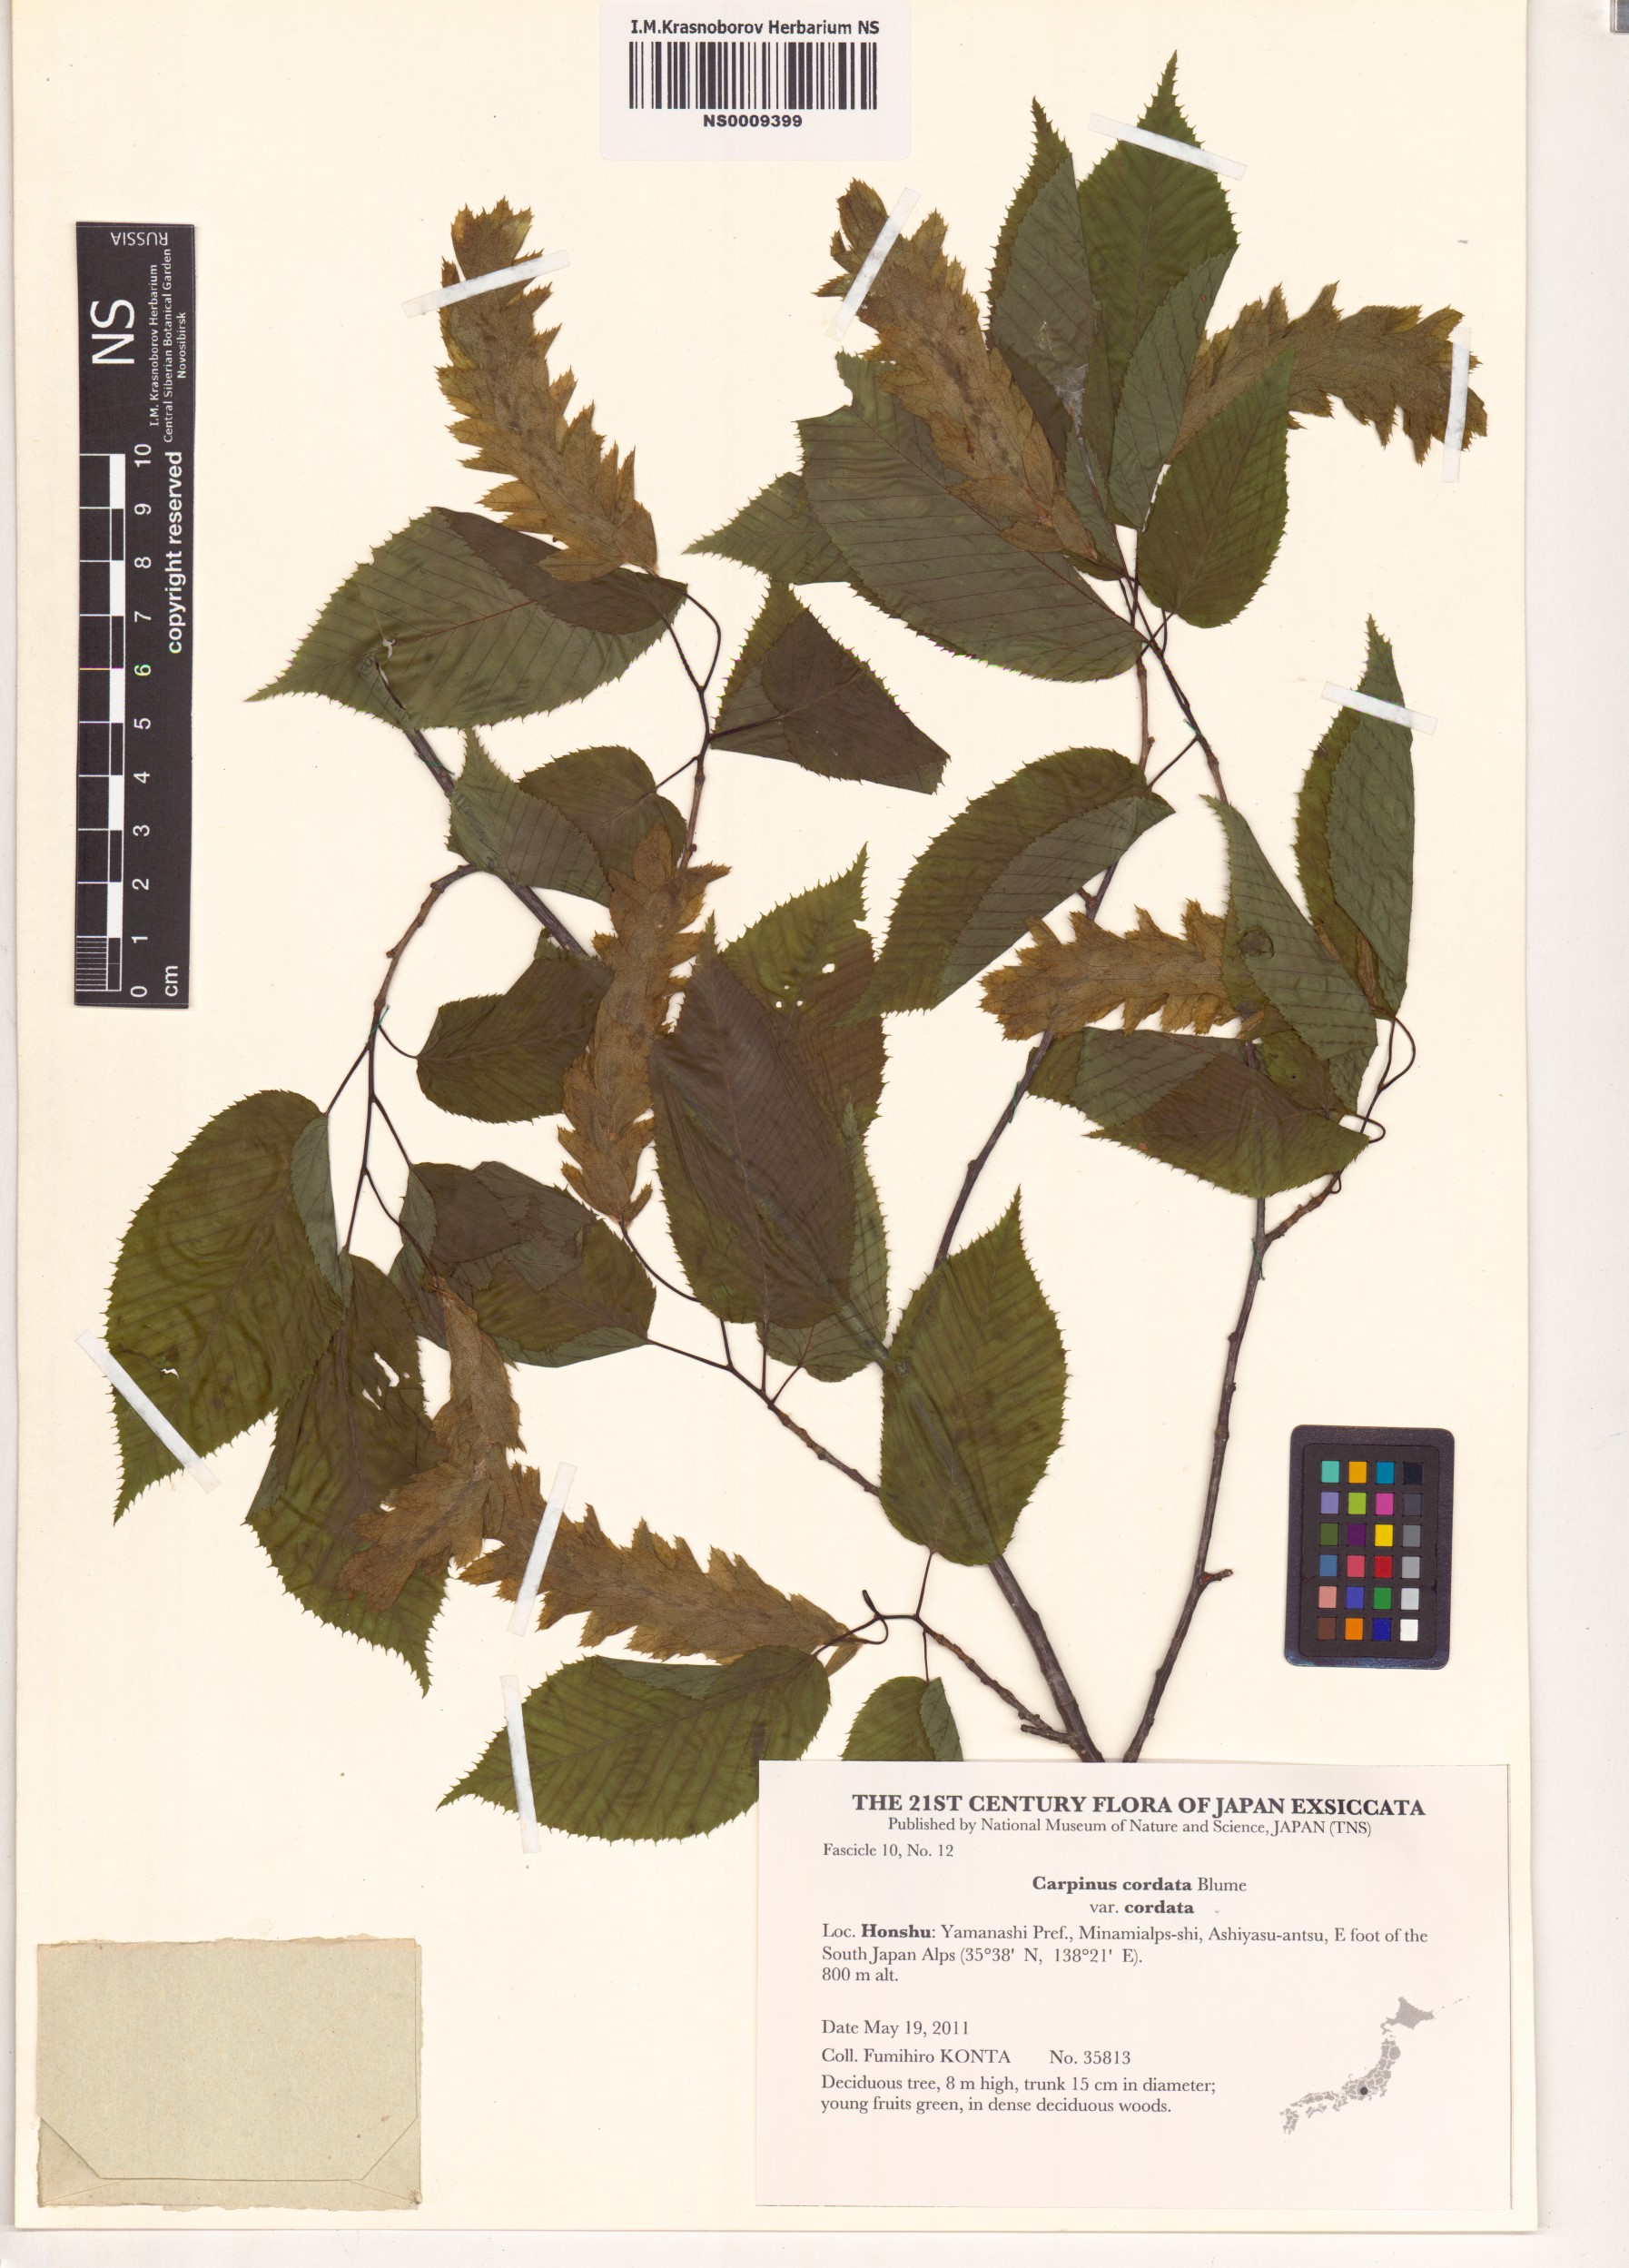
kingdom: Plantae
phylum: Tracheophyta
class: Magnoliopsida
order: Fagales
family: Betulaceae
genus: Carpinus
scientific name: Carpinus cordata
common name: Sawa hornbeam
